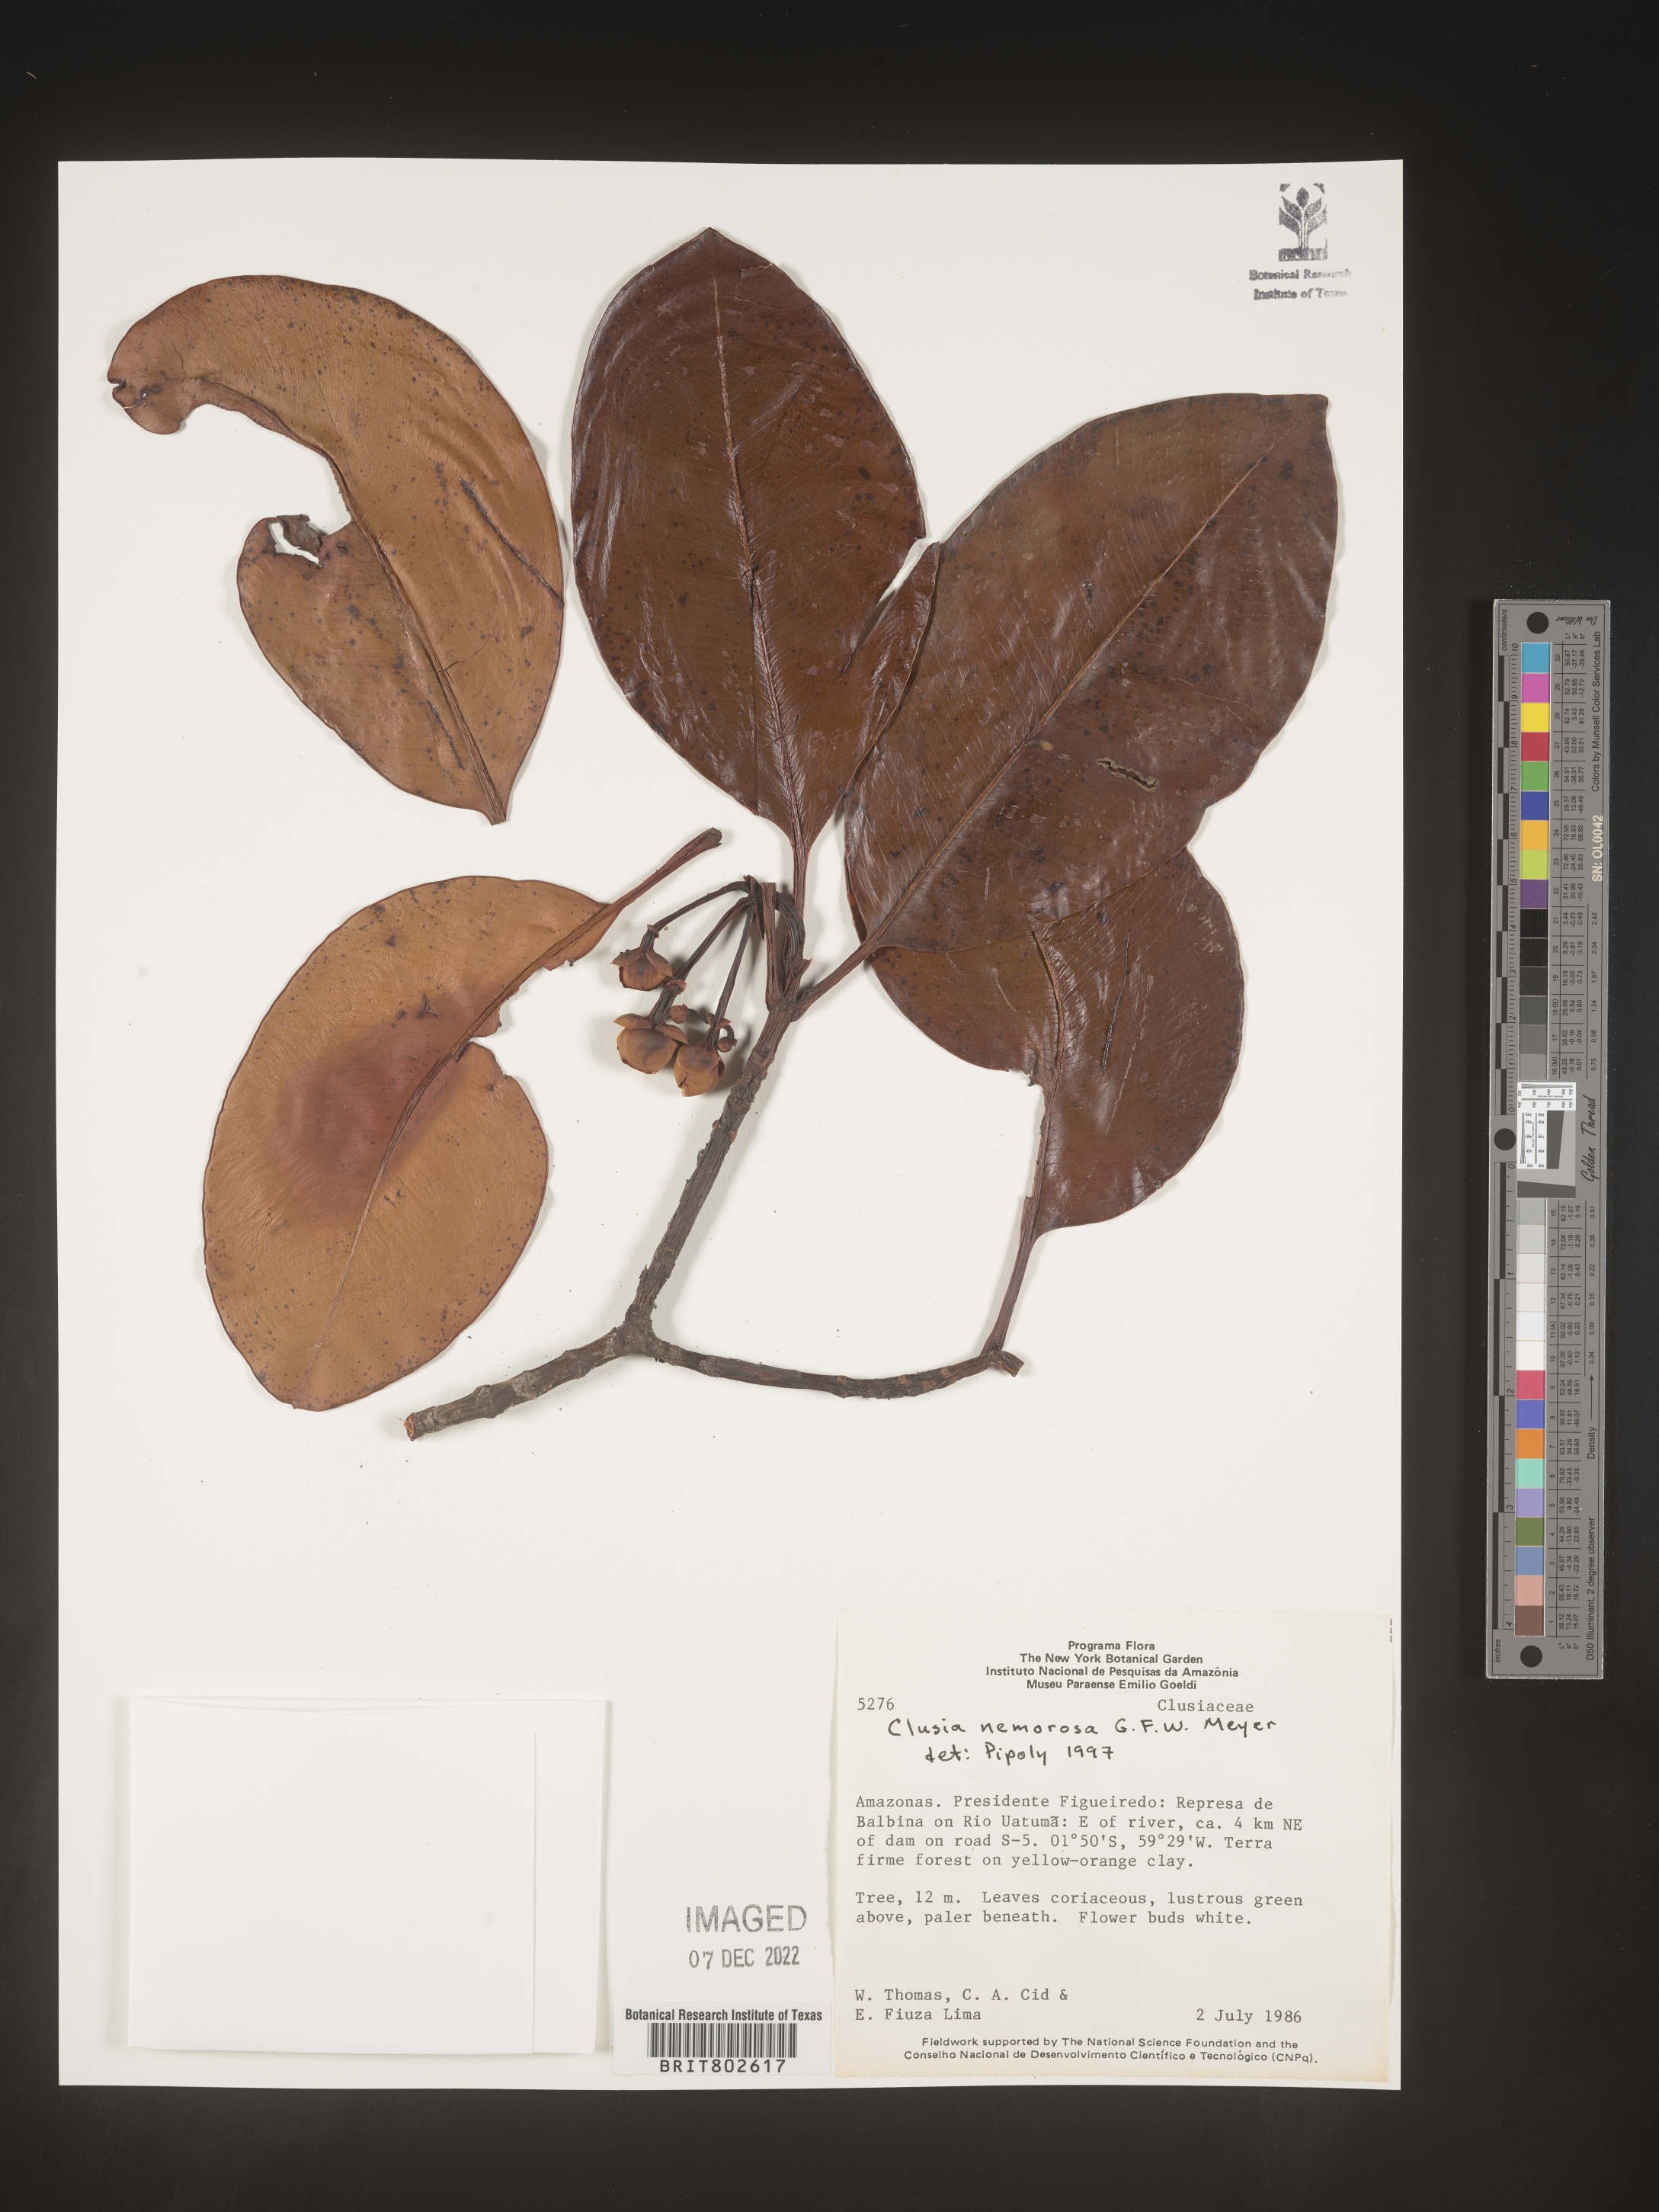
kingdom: Plantae
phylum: Tracheophyta
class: Magnoliopsida
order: Malpighiales
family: Clusiaceae
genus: Clusia
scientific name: Clusia nemorosa
